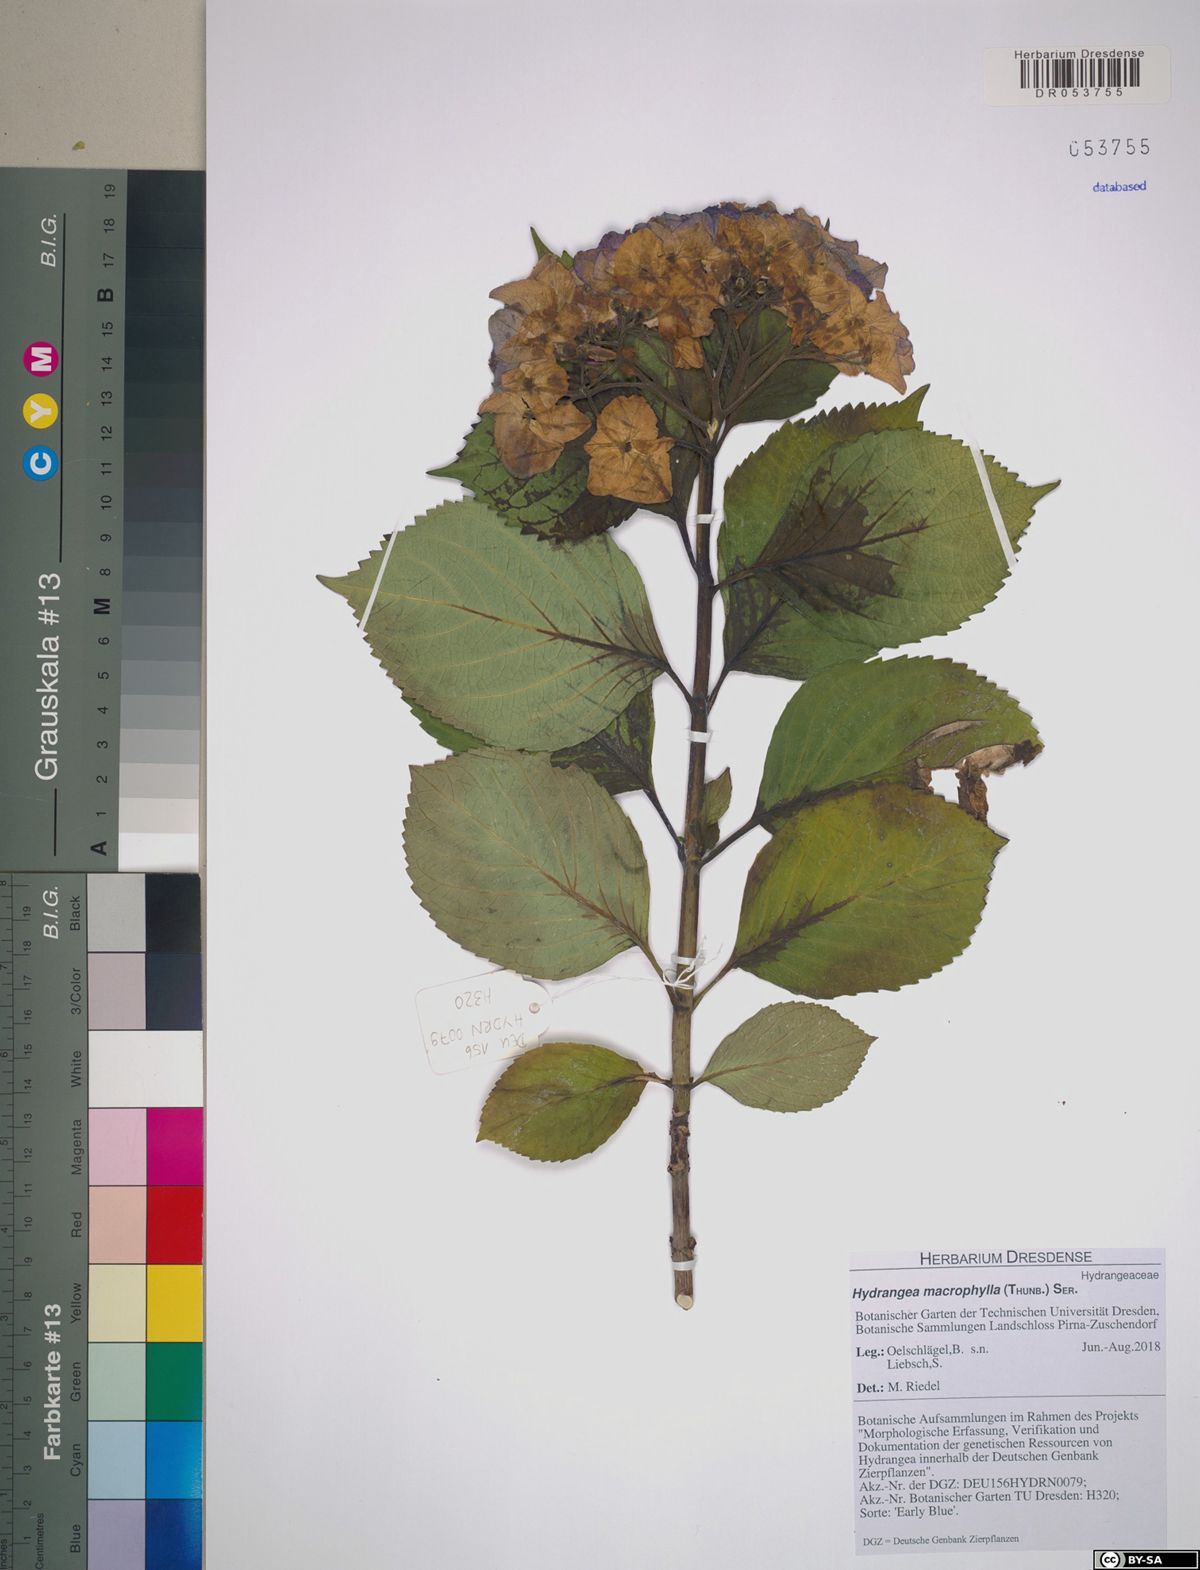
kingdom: Plantae
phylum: Tracheophyta
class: Magnoliopsida
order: Cornales
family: Hydrangeaceae
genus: Hydrangea
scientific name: Hydrangea macrophylla
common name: Hydrangea
